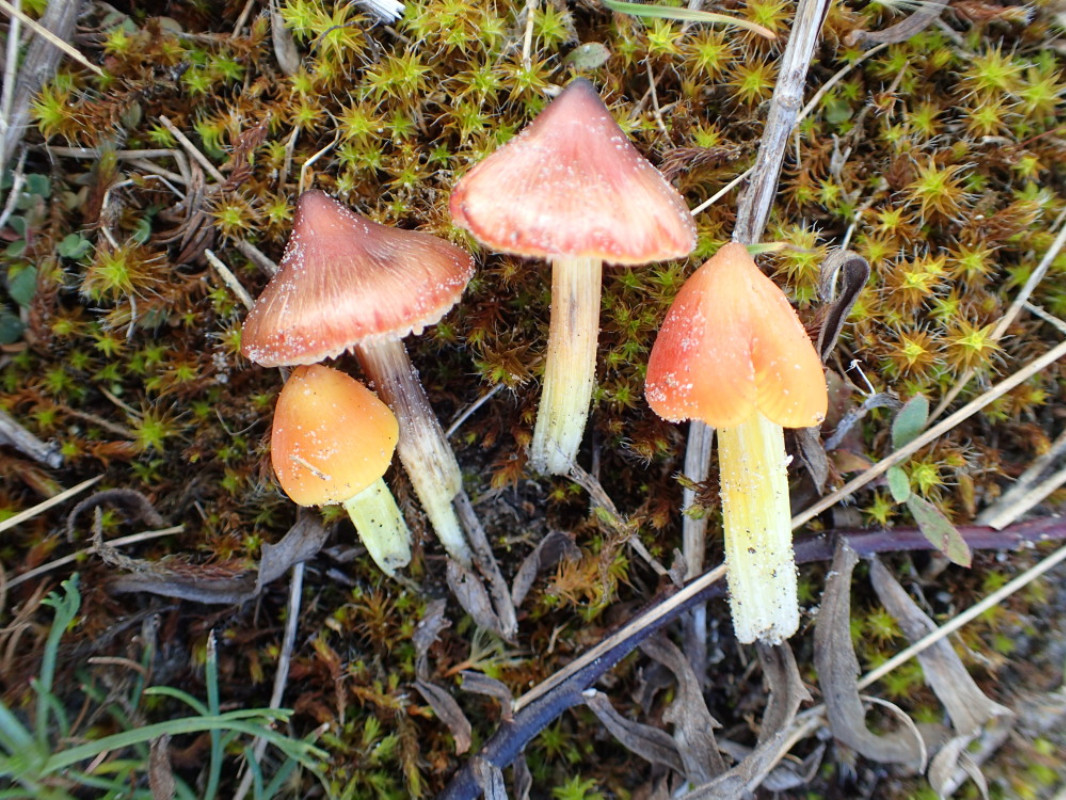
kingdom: Fungi
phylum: Basidiomycota
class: Agaricomycetes
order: Agaricales
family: Hygrophoraceae
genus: Hygrocybe
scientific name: Hygrocybe conica
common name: kegle-vokshat
